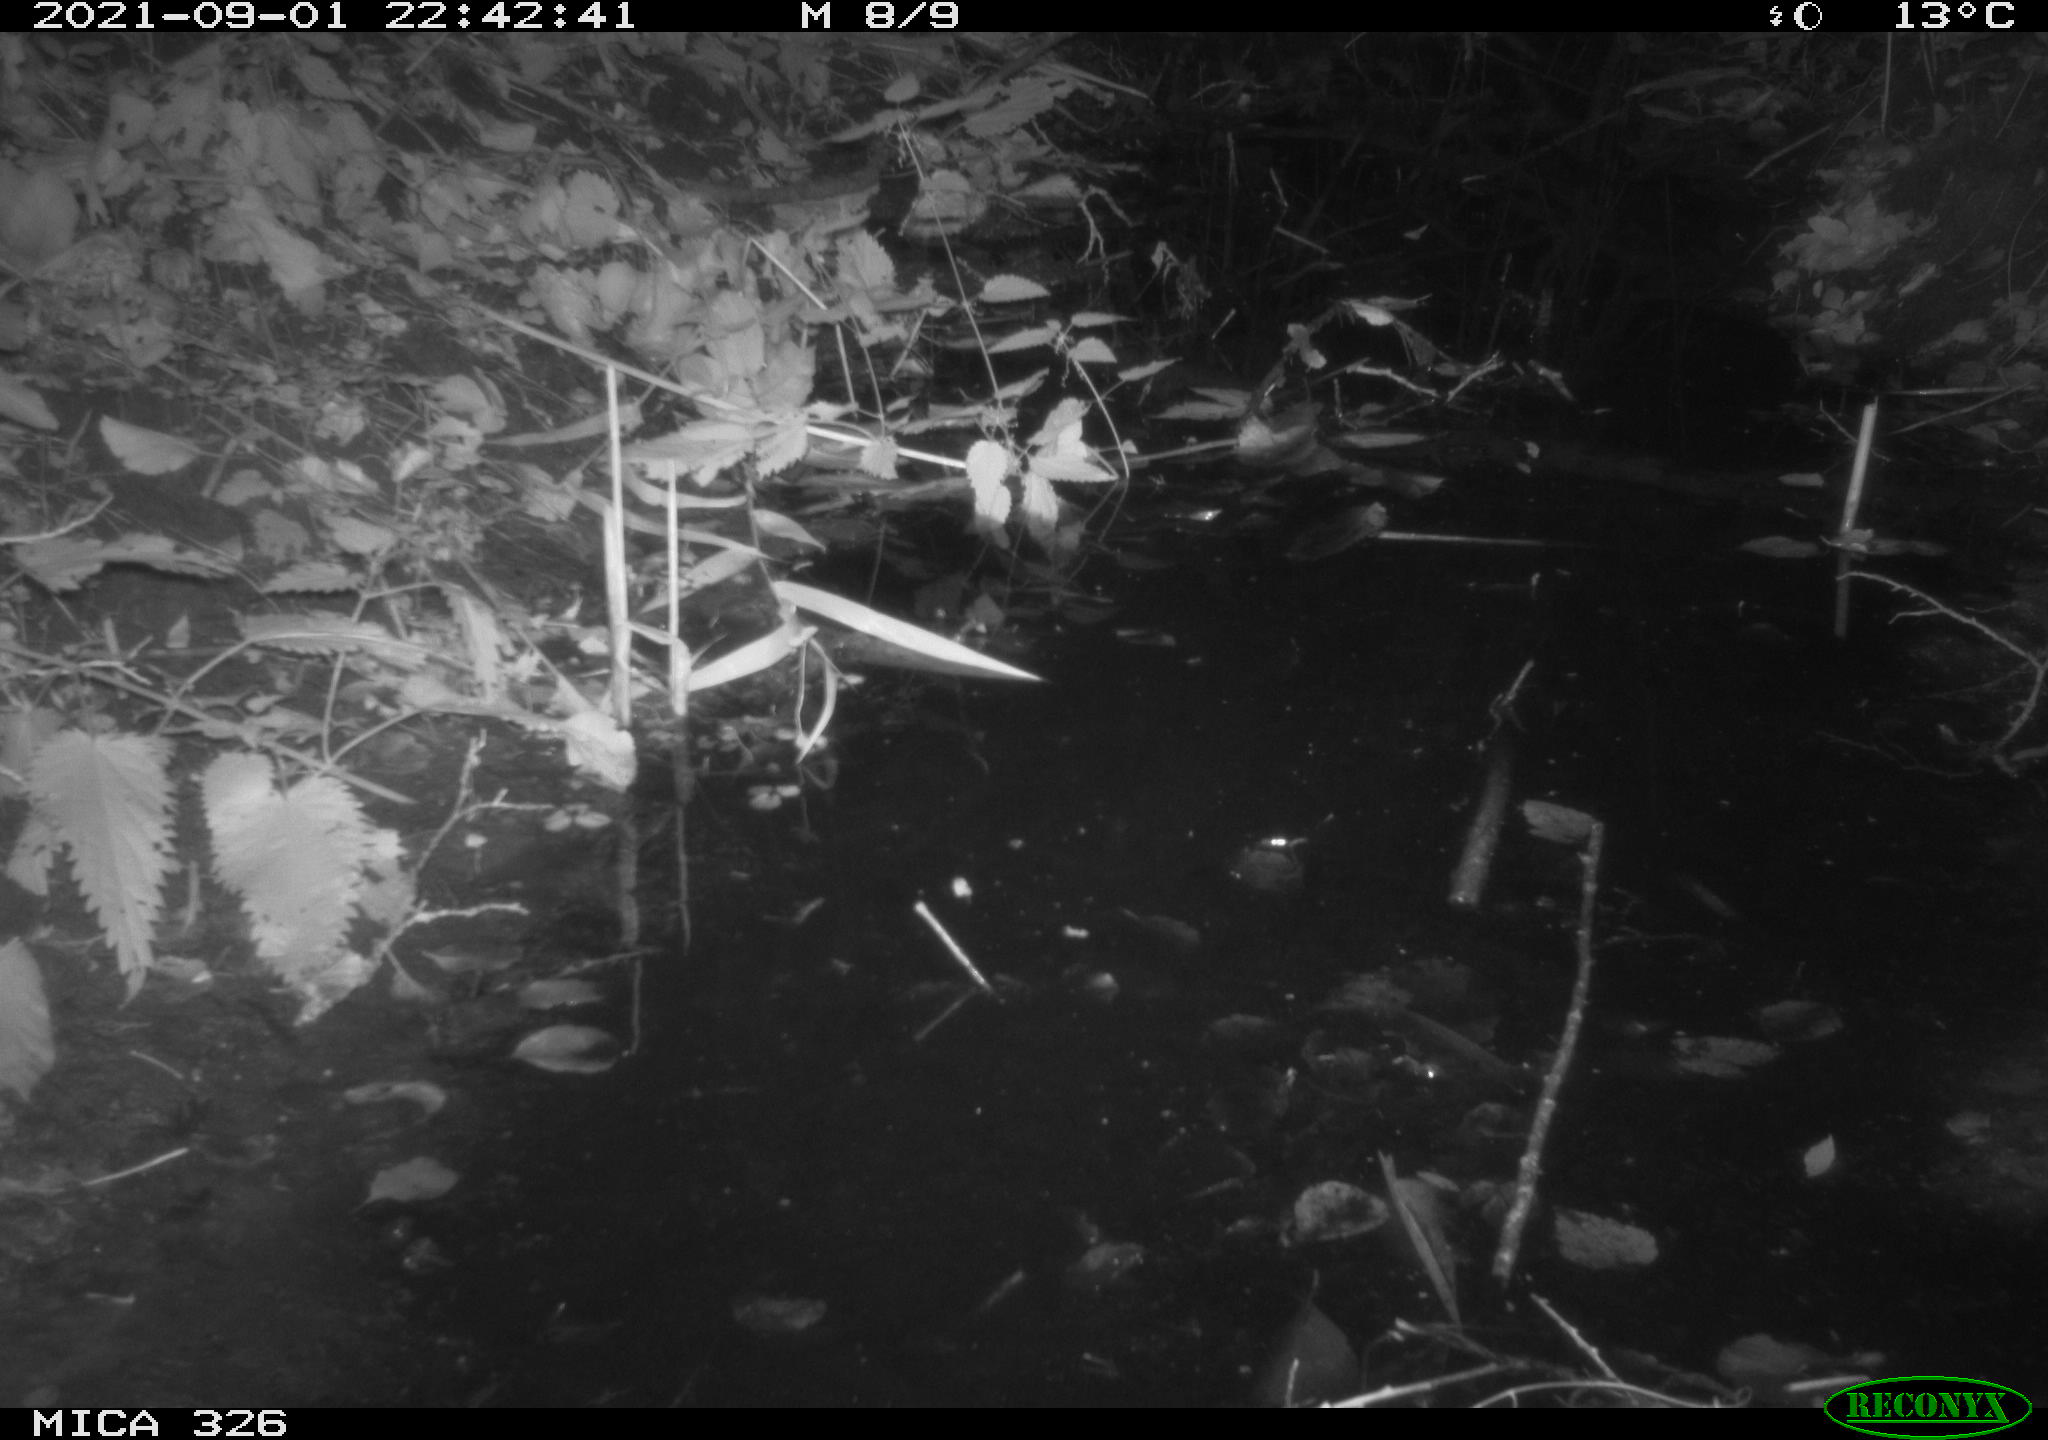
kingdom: Animalia
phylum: Chordata
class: Mammalia
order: Rodentia
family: Cricetidae
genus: Ondatra
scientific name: Ondatra zibethicus
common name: Muskrat
